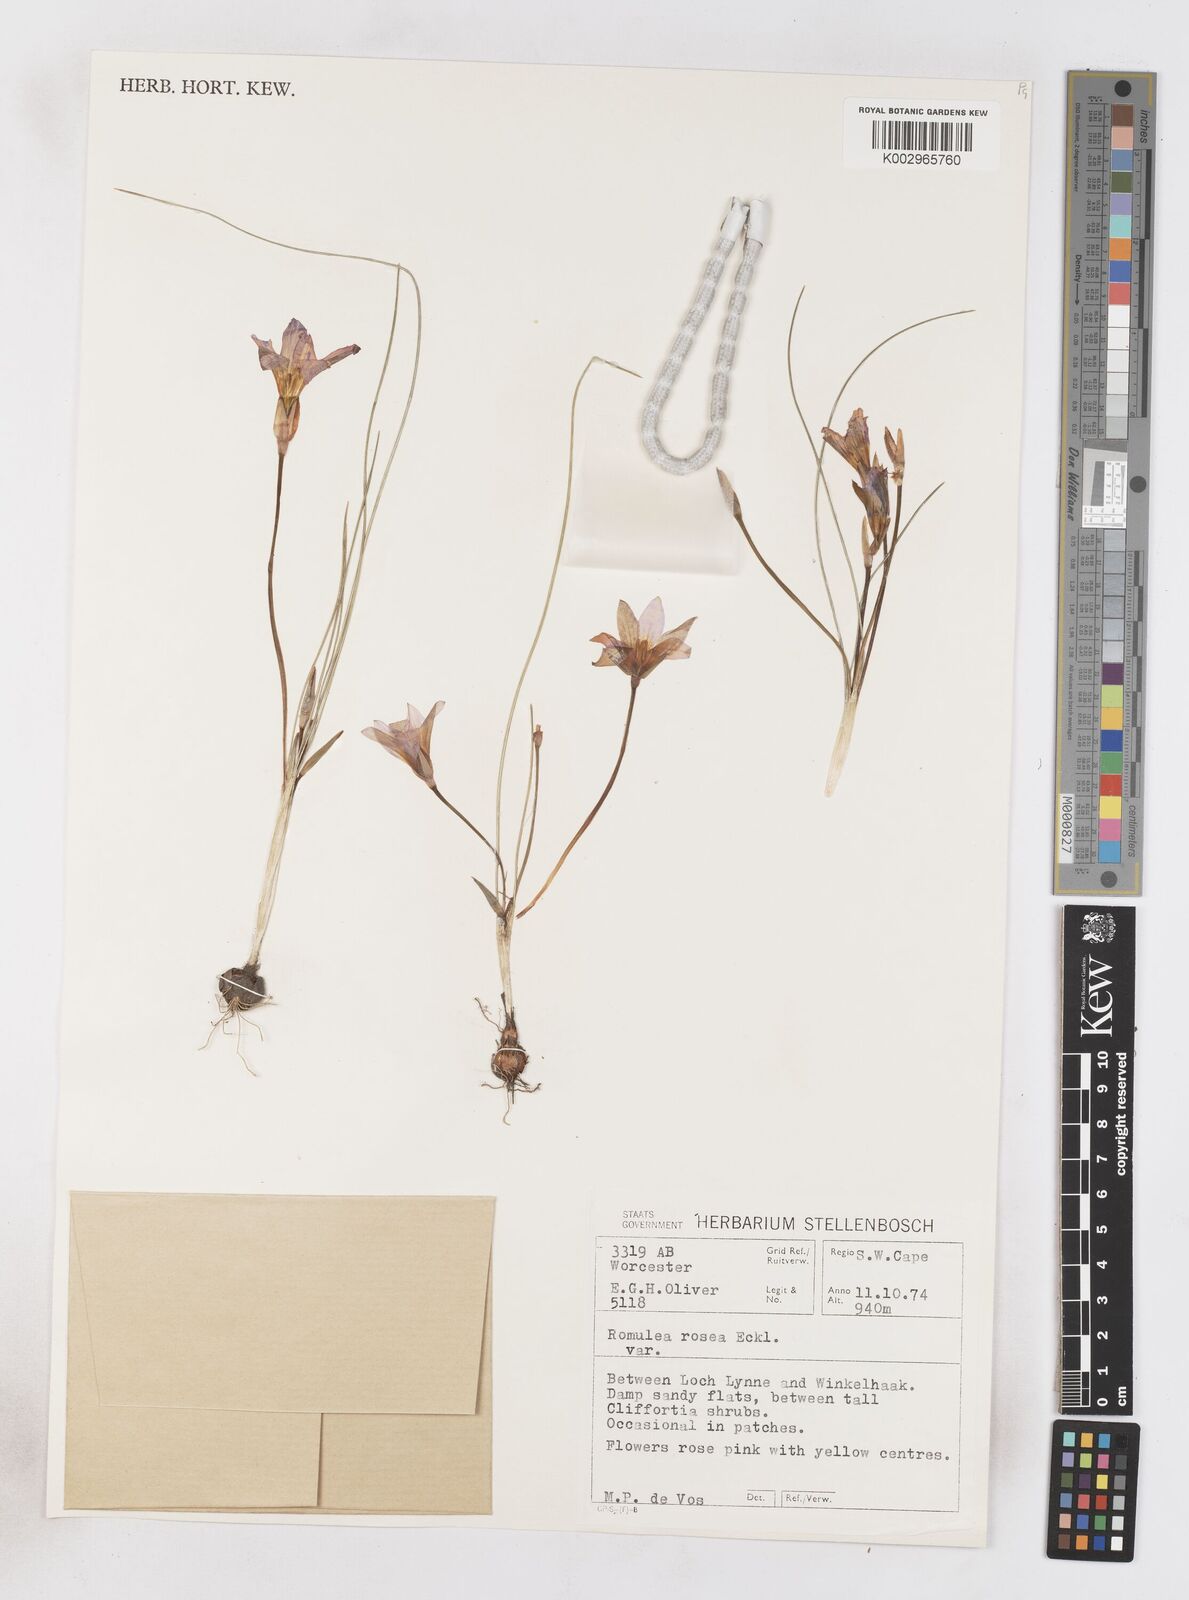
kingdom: Plantae
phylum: Tracheophyta
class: Liliopsida
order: Asparagales
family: Iridaceae
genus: Romulea
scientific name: Romulea rosea
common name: Oniongrass
